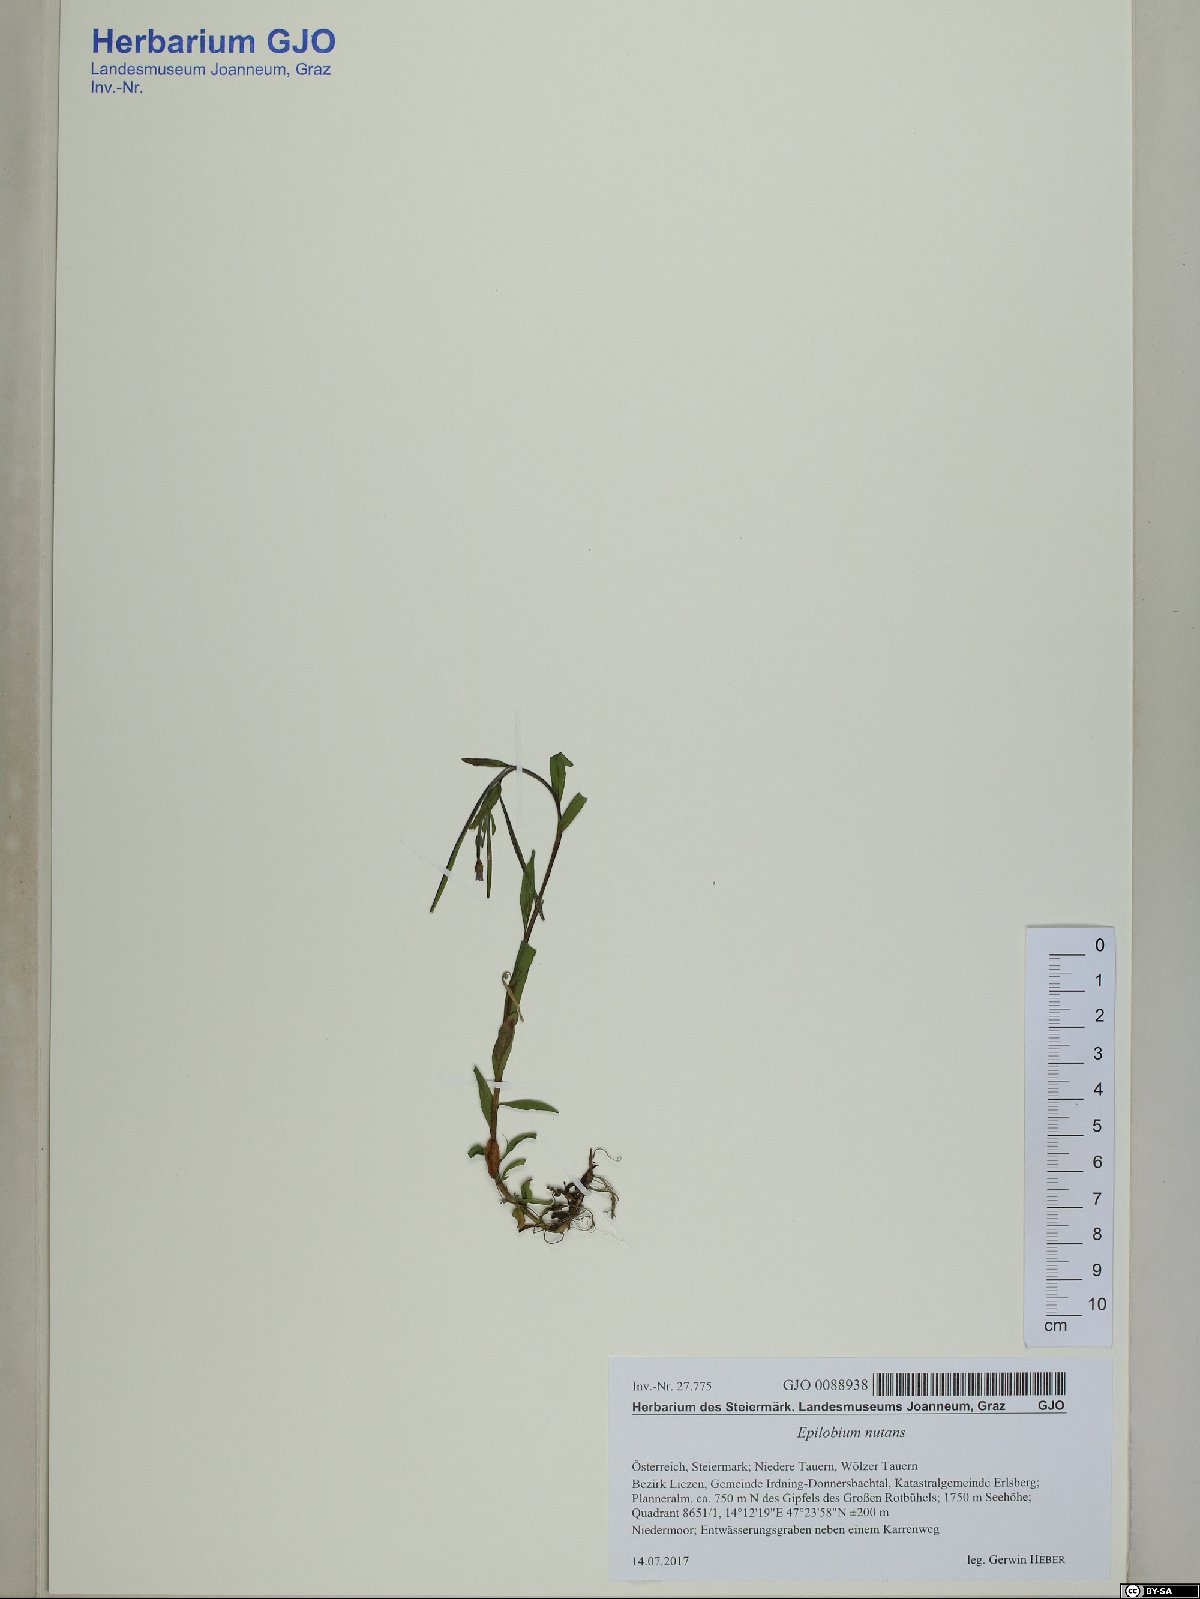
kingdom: Plantae
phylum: Tracheophyta
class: Magnoliopsida
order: Myrtales
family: Onagraceae
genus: Epilobium
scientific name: Epilobium nutans
